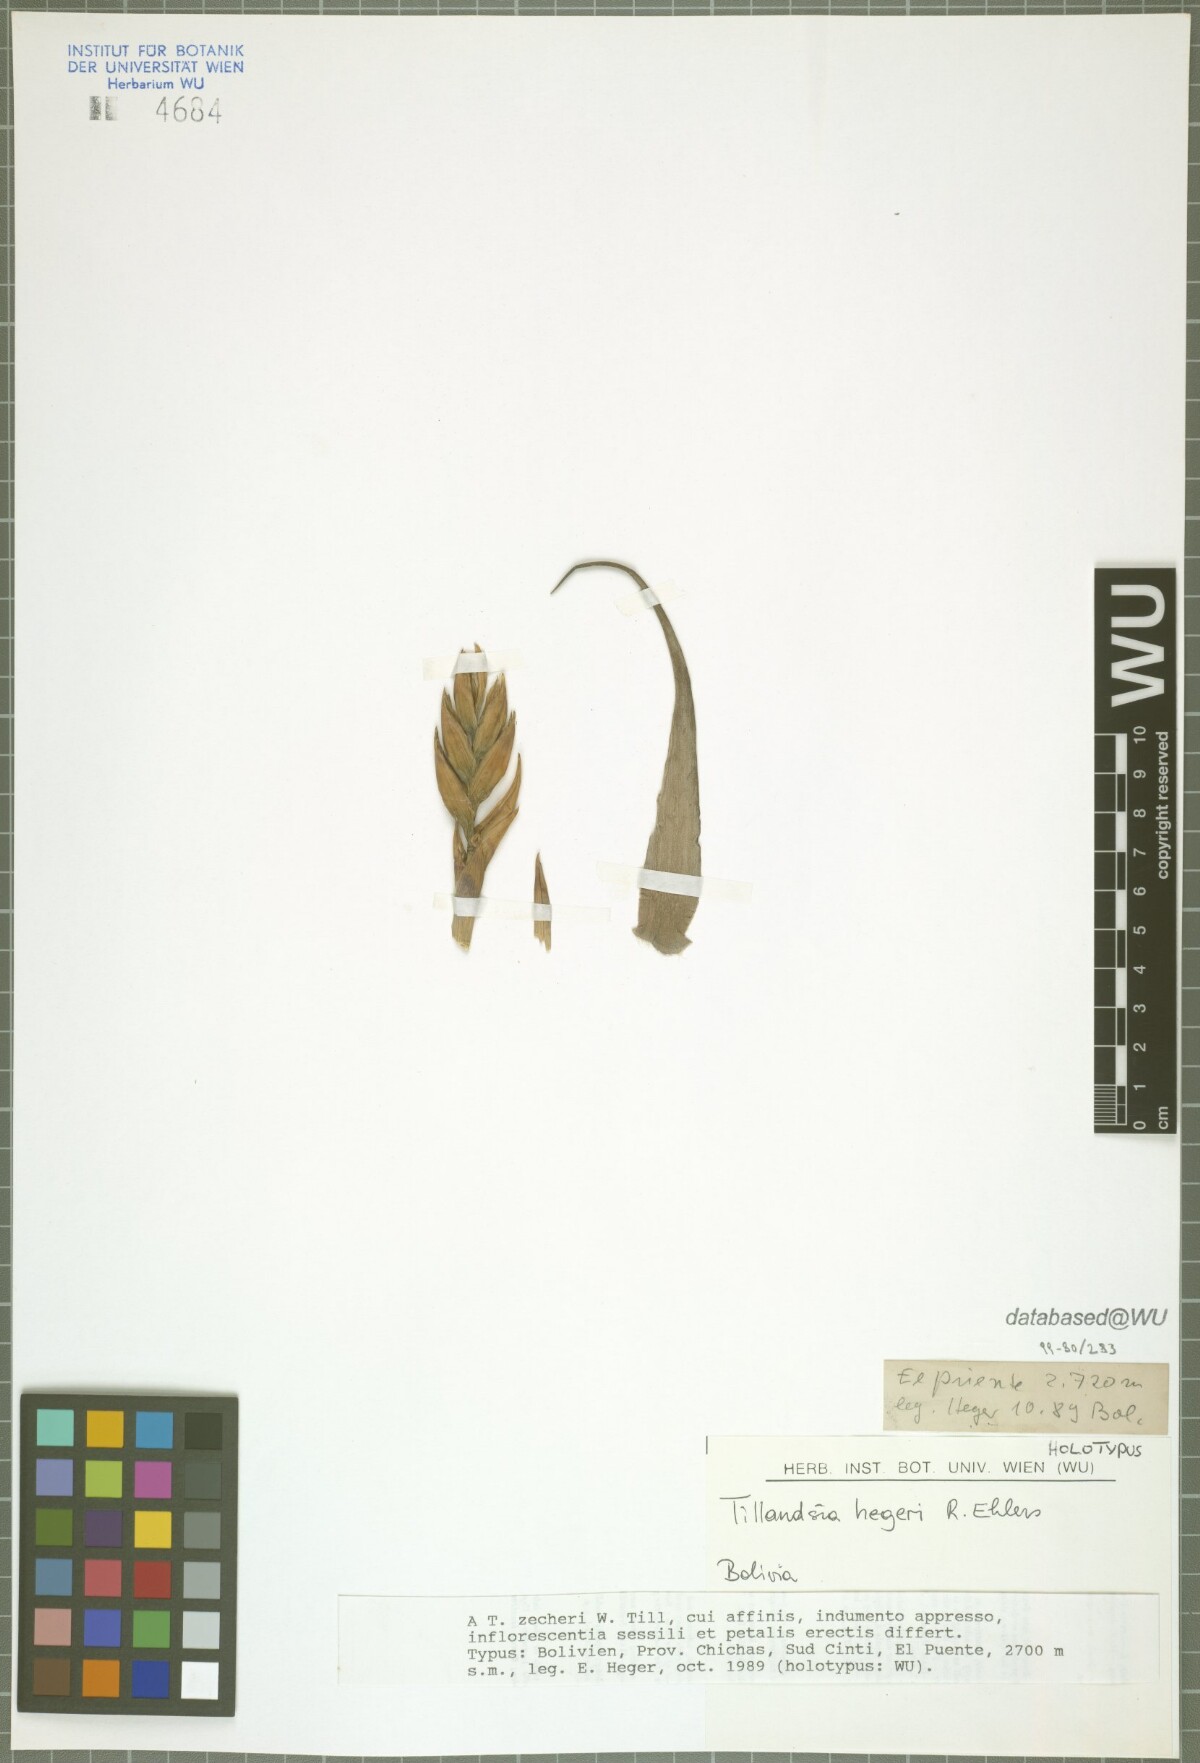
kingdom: Plantae
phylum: Tracheophyta
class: Liliopsida
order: Poales
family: Bromeliaceae
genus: Tillandsia
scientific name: Tillandsia hegeri
